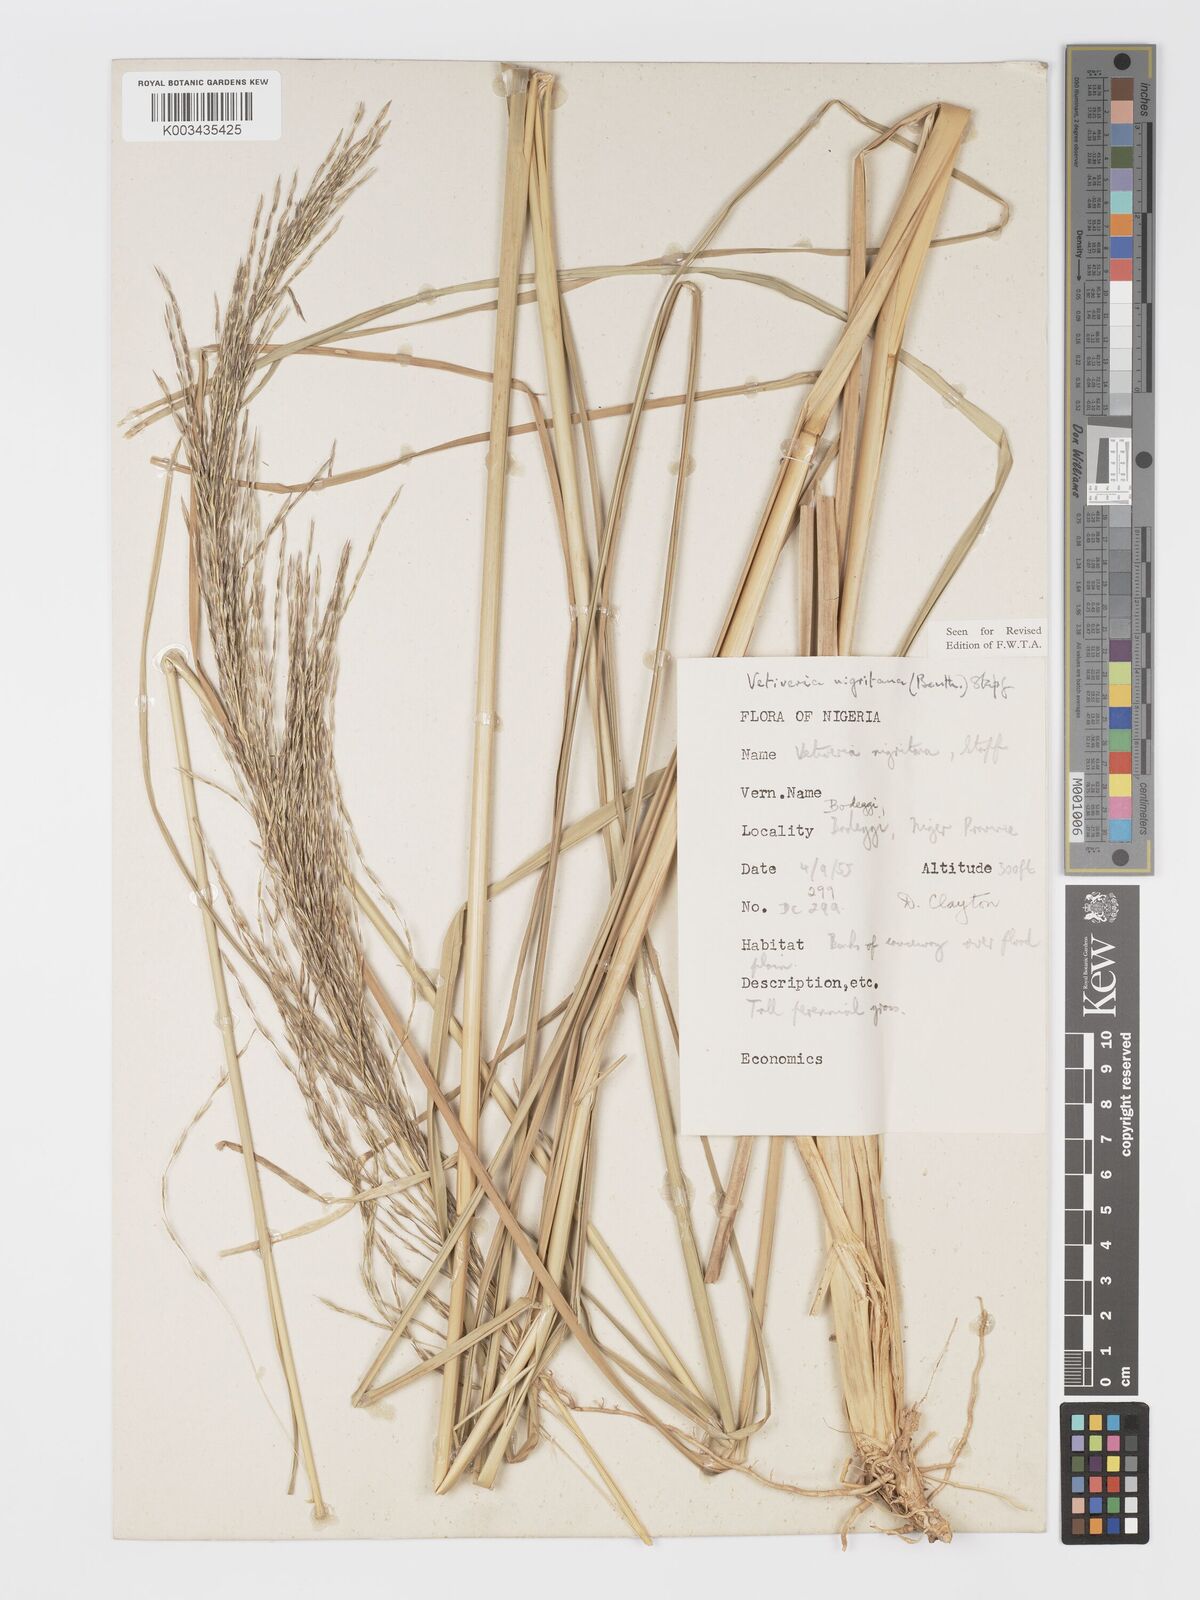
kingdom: Plantae
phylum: Tracheophyta
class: Liliopsida
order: Poales
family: Poaceae
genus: Chrysopogon
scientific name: Chrysopogon nigritanus
